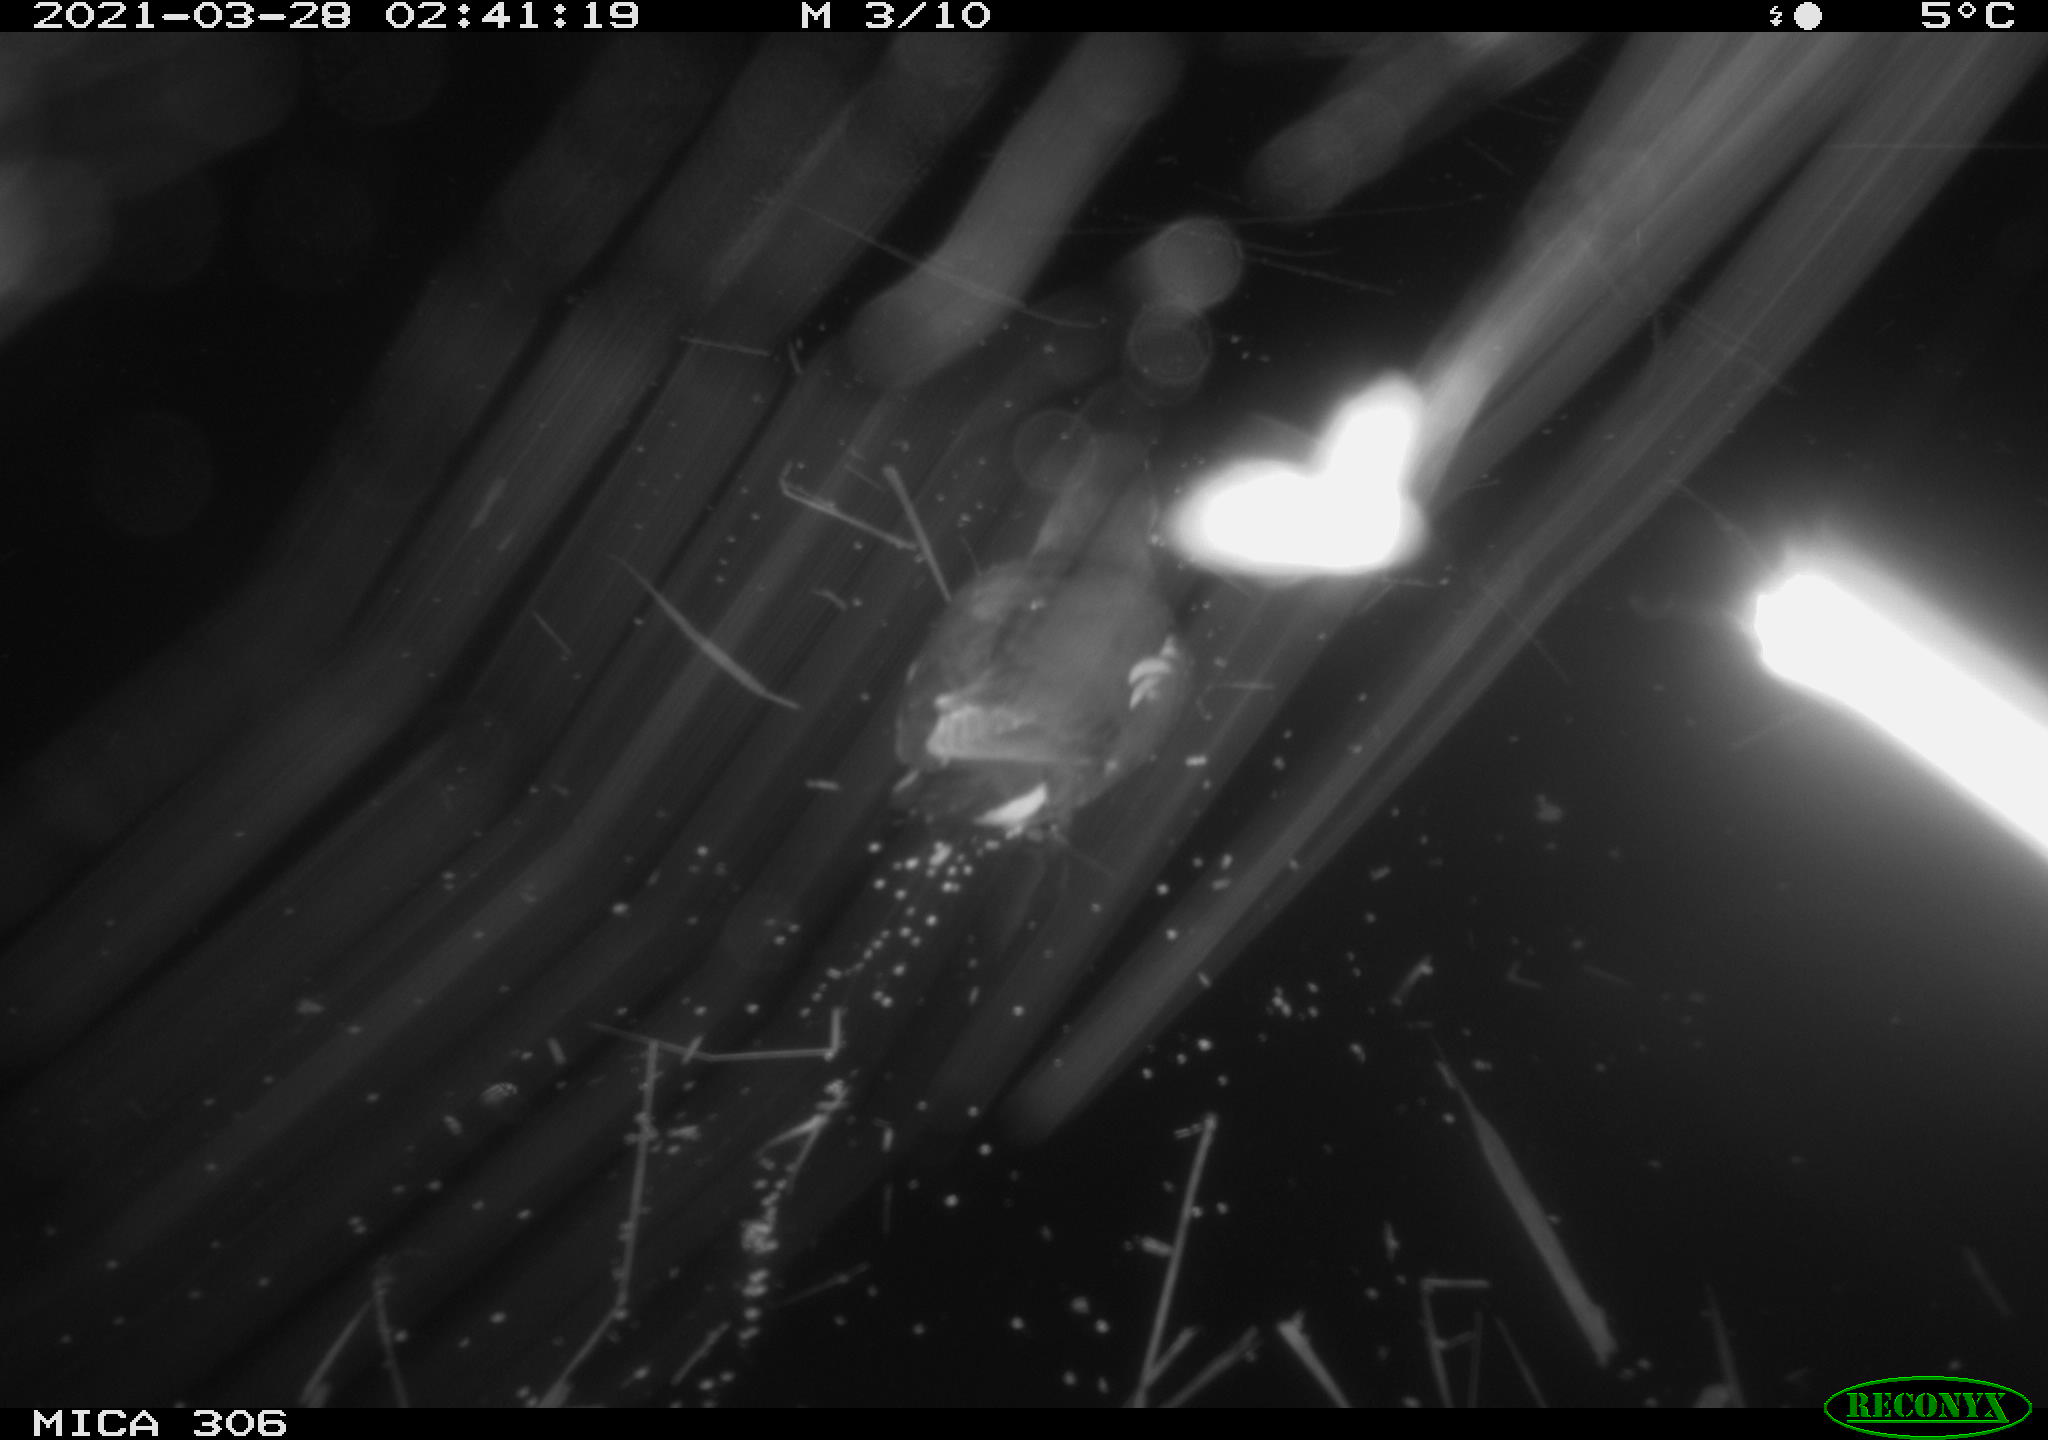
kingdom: Animalia
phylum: Chordata
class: Aves
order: Gruiformes
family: Rallidae
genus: Gallinula
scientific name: Gallinula chloropus
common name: Common moorhen
